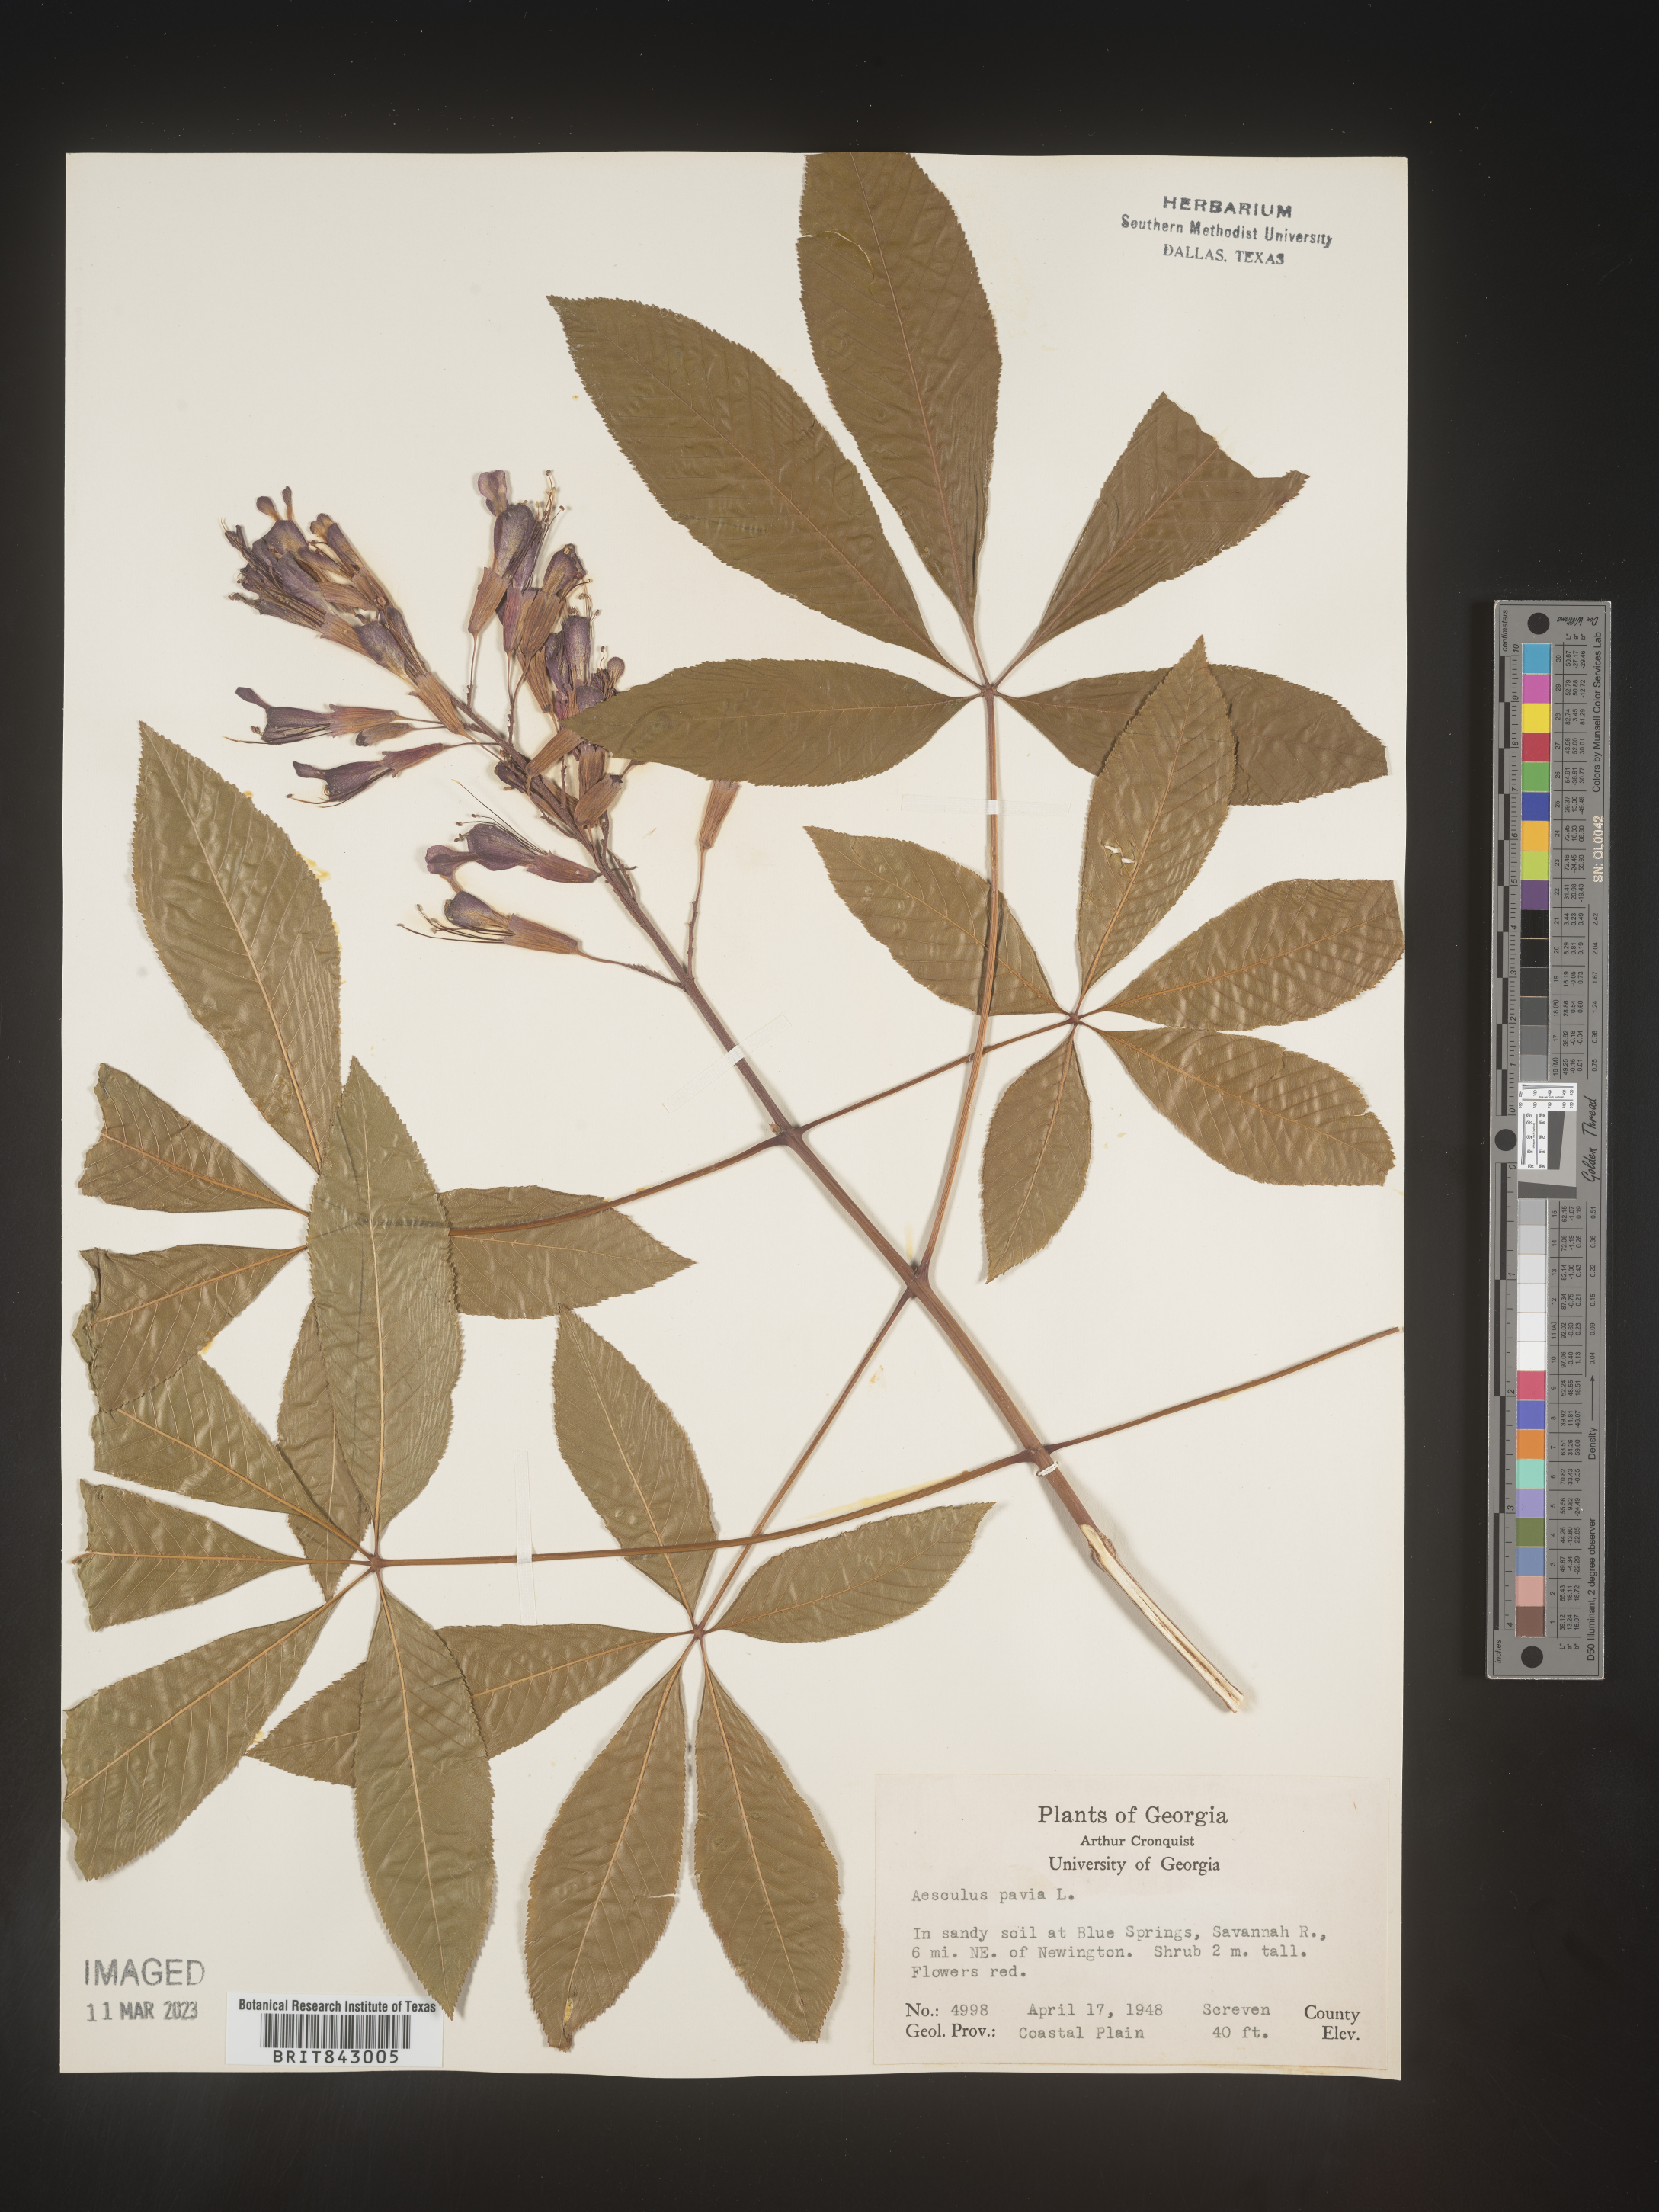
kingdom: Plantae
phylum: Tracheophyta
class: Magnoliopsida
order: Sapindales
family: Sapindaceae
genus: Aesculus
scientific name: Aesculus pavia
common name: Red buckeye
